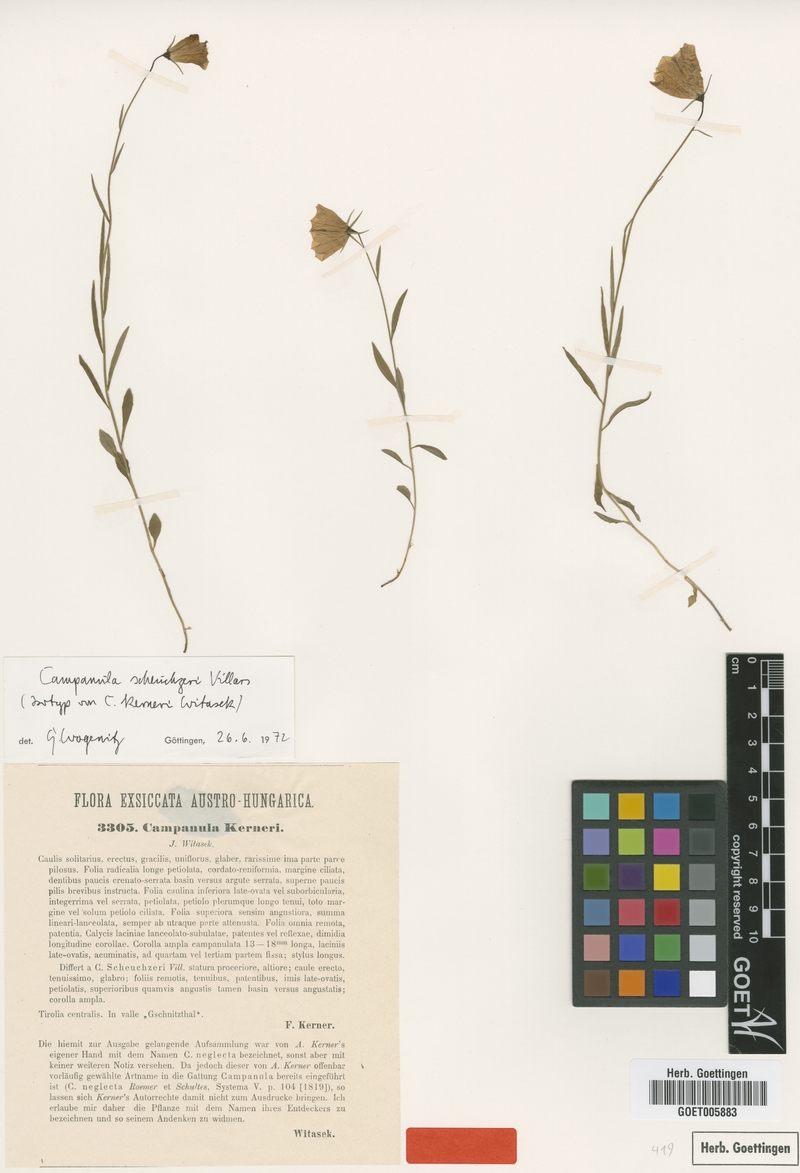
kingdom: Plantae
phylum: Tracheophyta
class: Magnoliopsida
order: Asterales
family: Campanulaceae
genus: Campanula
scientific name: Campanula scheuchzeri
